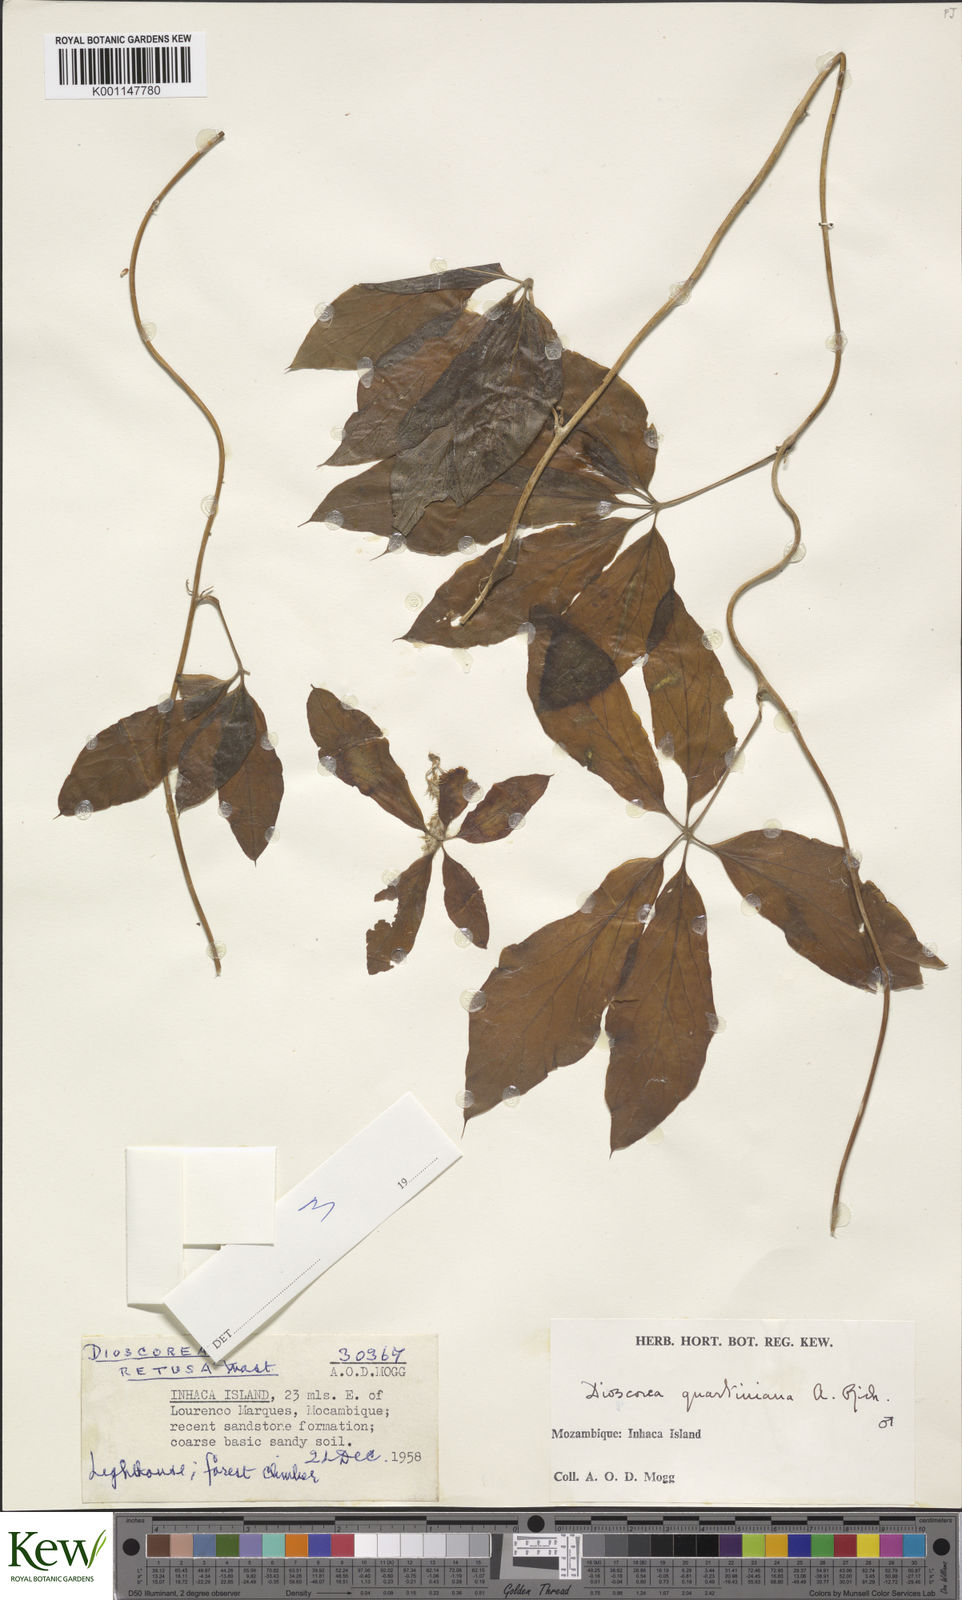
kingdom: Plantae
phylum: Tracheophyta
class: Liliopsida
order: Dioscoreales
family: Dioscoreaceae
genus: Dioscorea
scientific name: Dioscorea quartiniana
